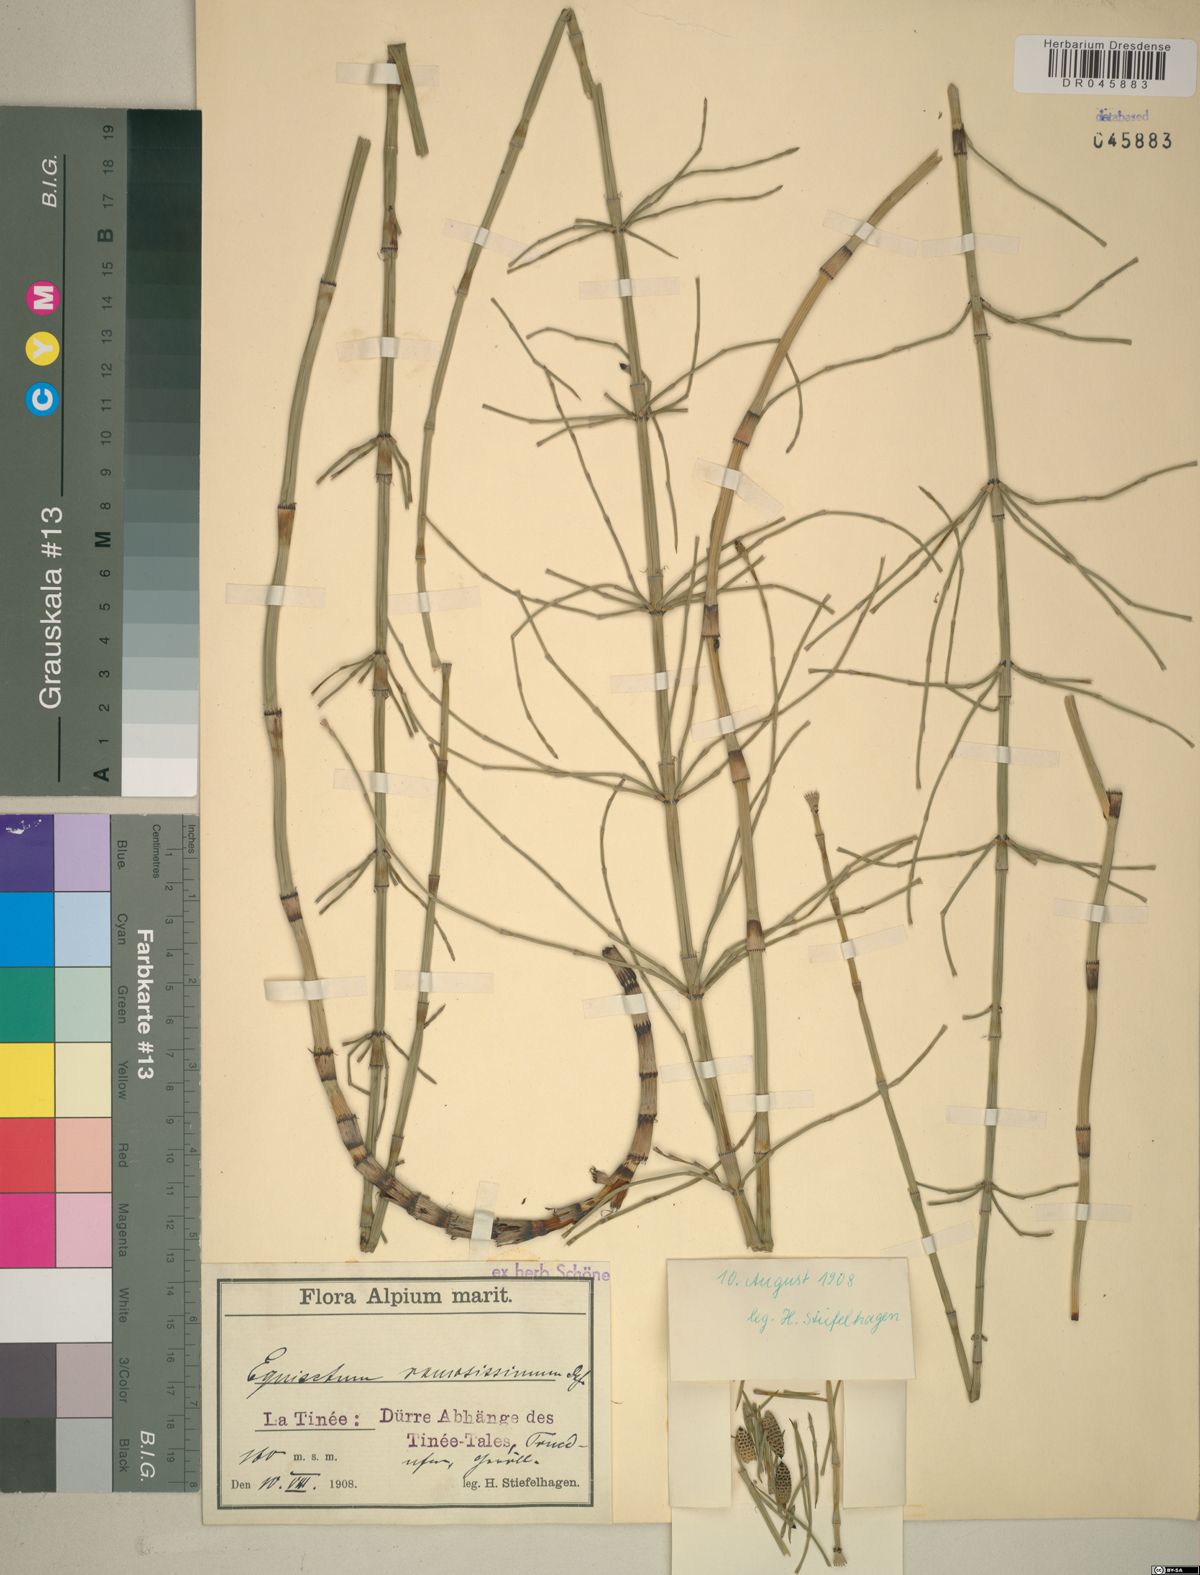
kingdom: Plantae
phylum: Tracheophyta
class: Polypodiopsida
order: Equisetales
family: Equisetaceae
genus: Equisetum
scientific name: Equisetum ramosissimum
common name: Branched horsetail
